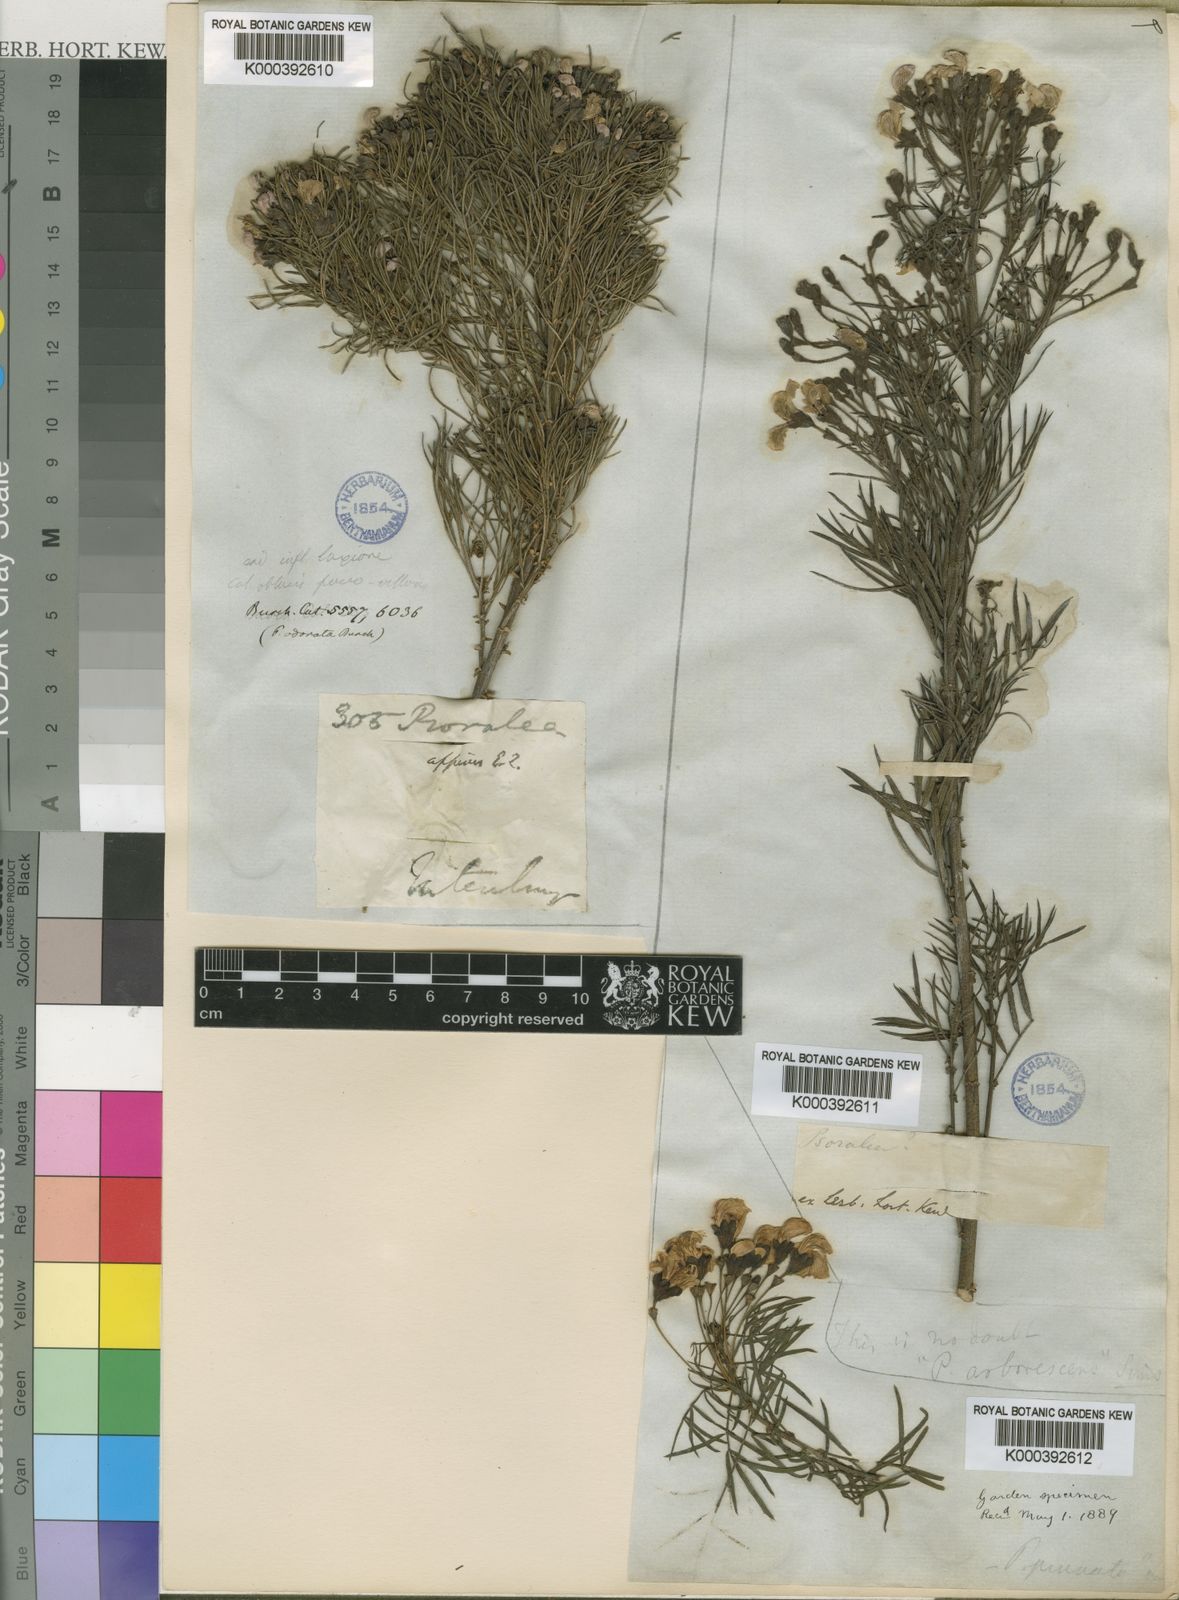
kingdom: Plantae
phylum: Tracheophyta
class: Magnoliopsida
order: Fabales
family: Fabaceae
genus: Psoralea
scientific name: Psoralea
